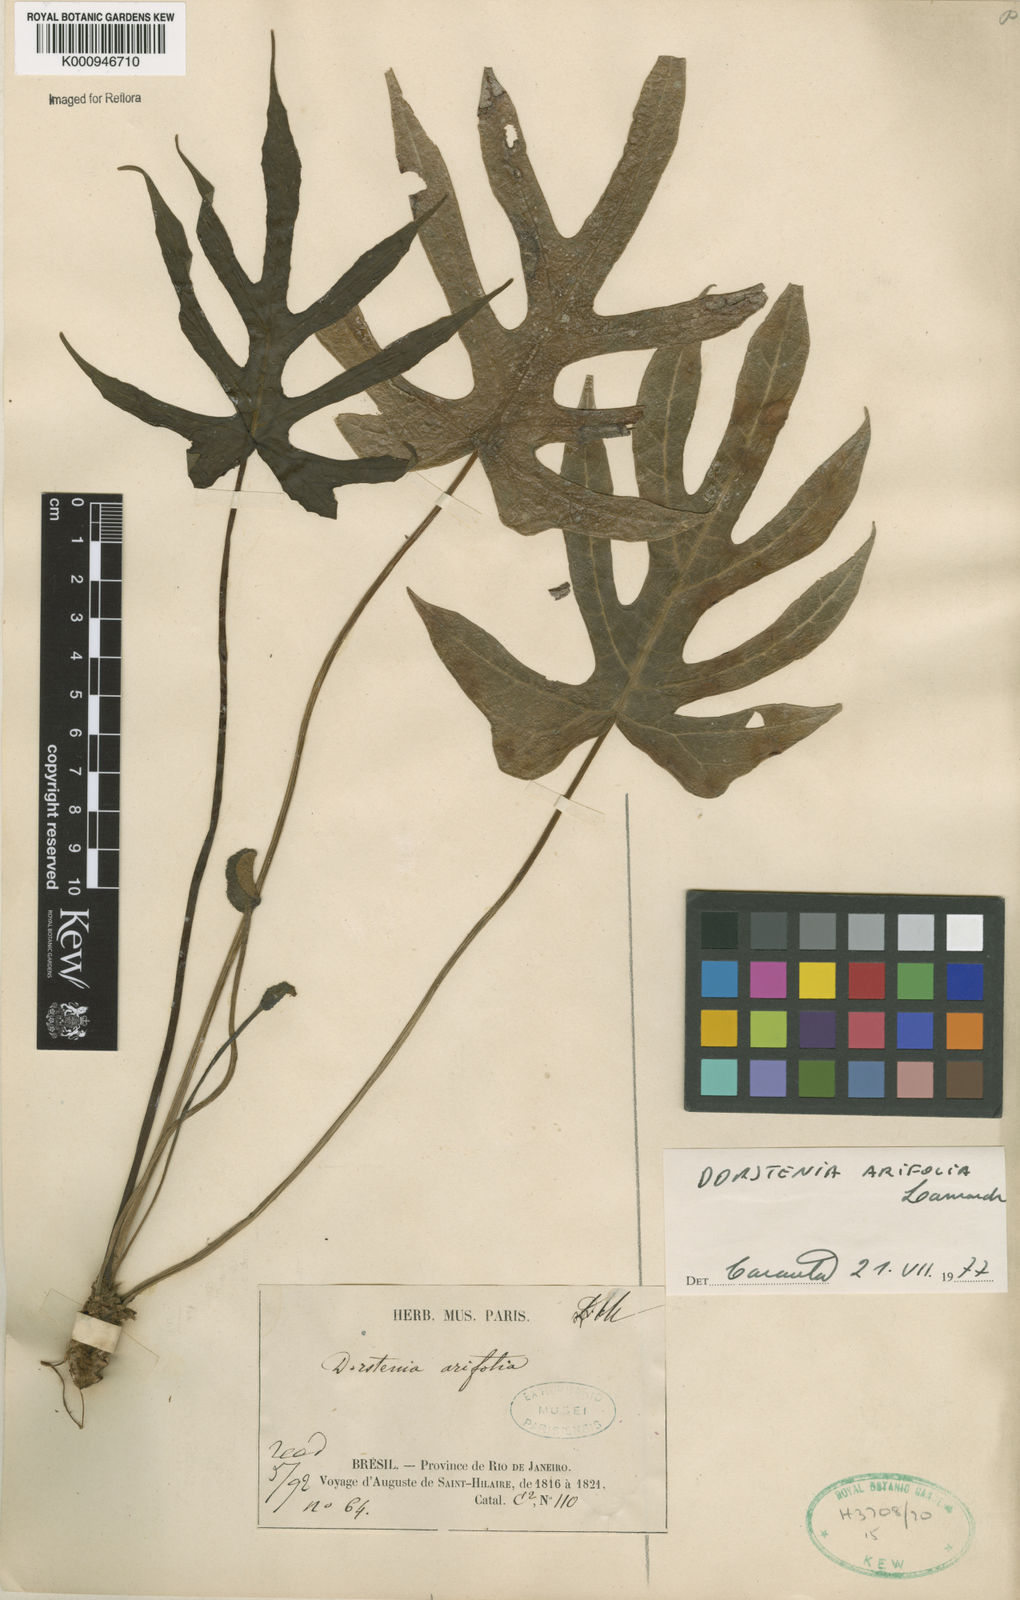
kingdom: Plantae
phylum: Tracheophyta
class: Magnoliopsida
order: Rosales
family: Moraceae
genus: Dorstenia
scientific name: Dorstenia arifolia
